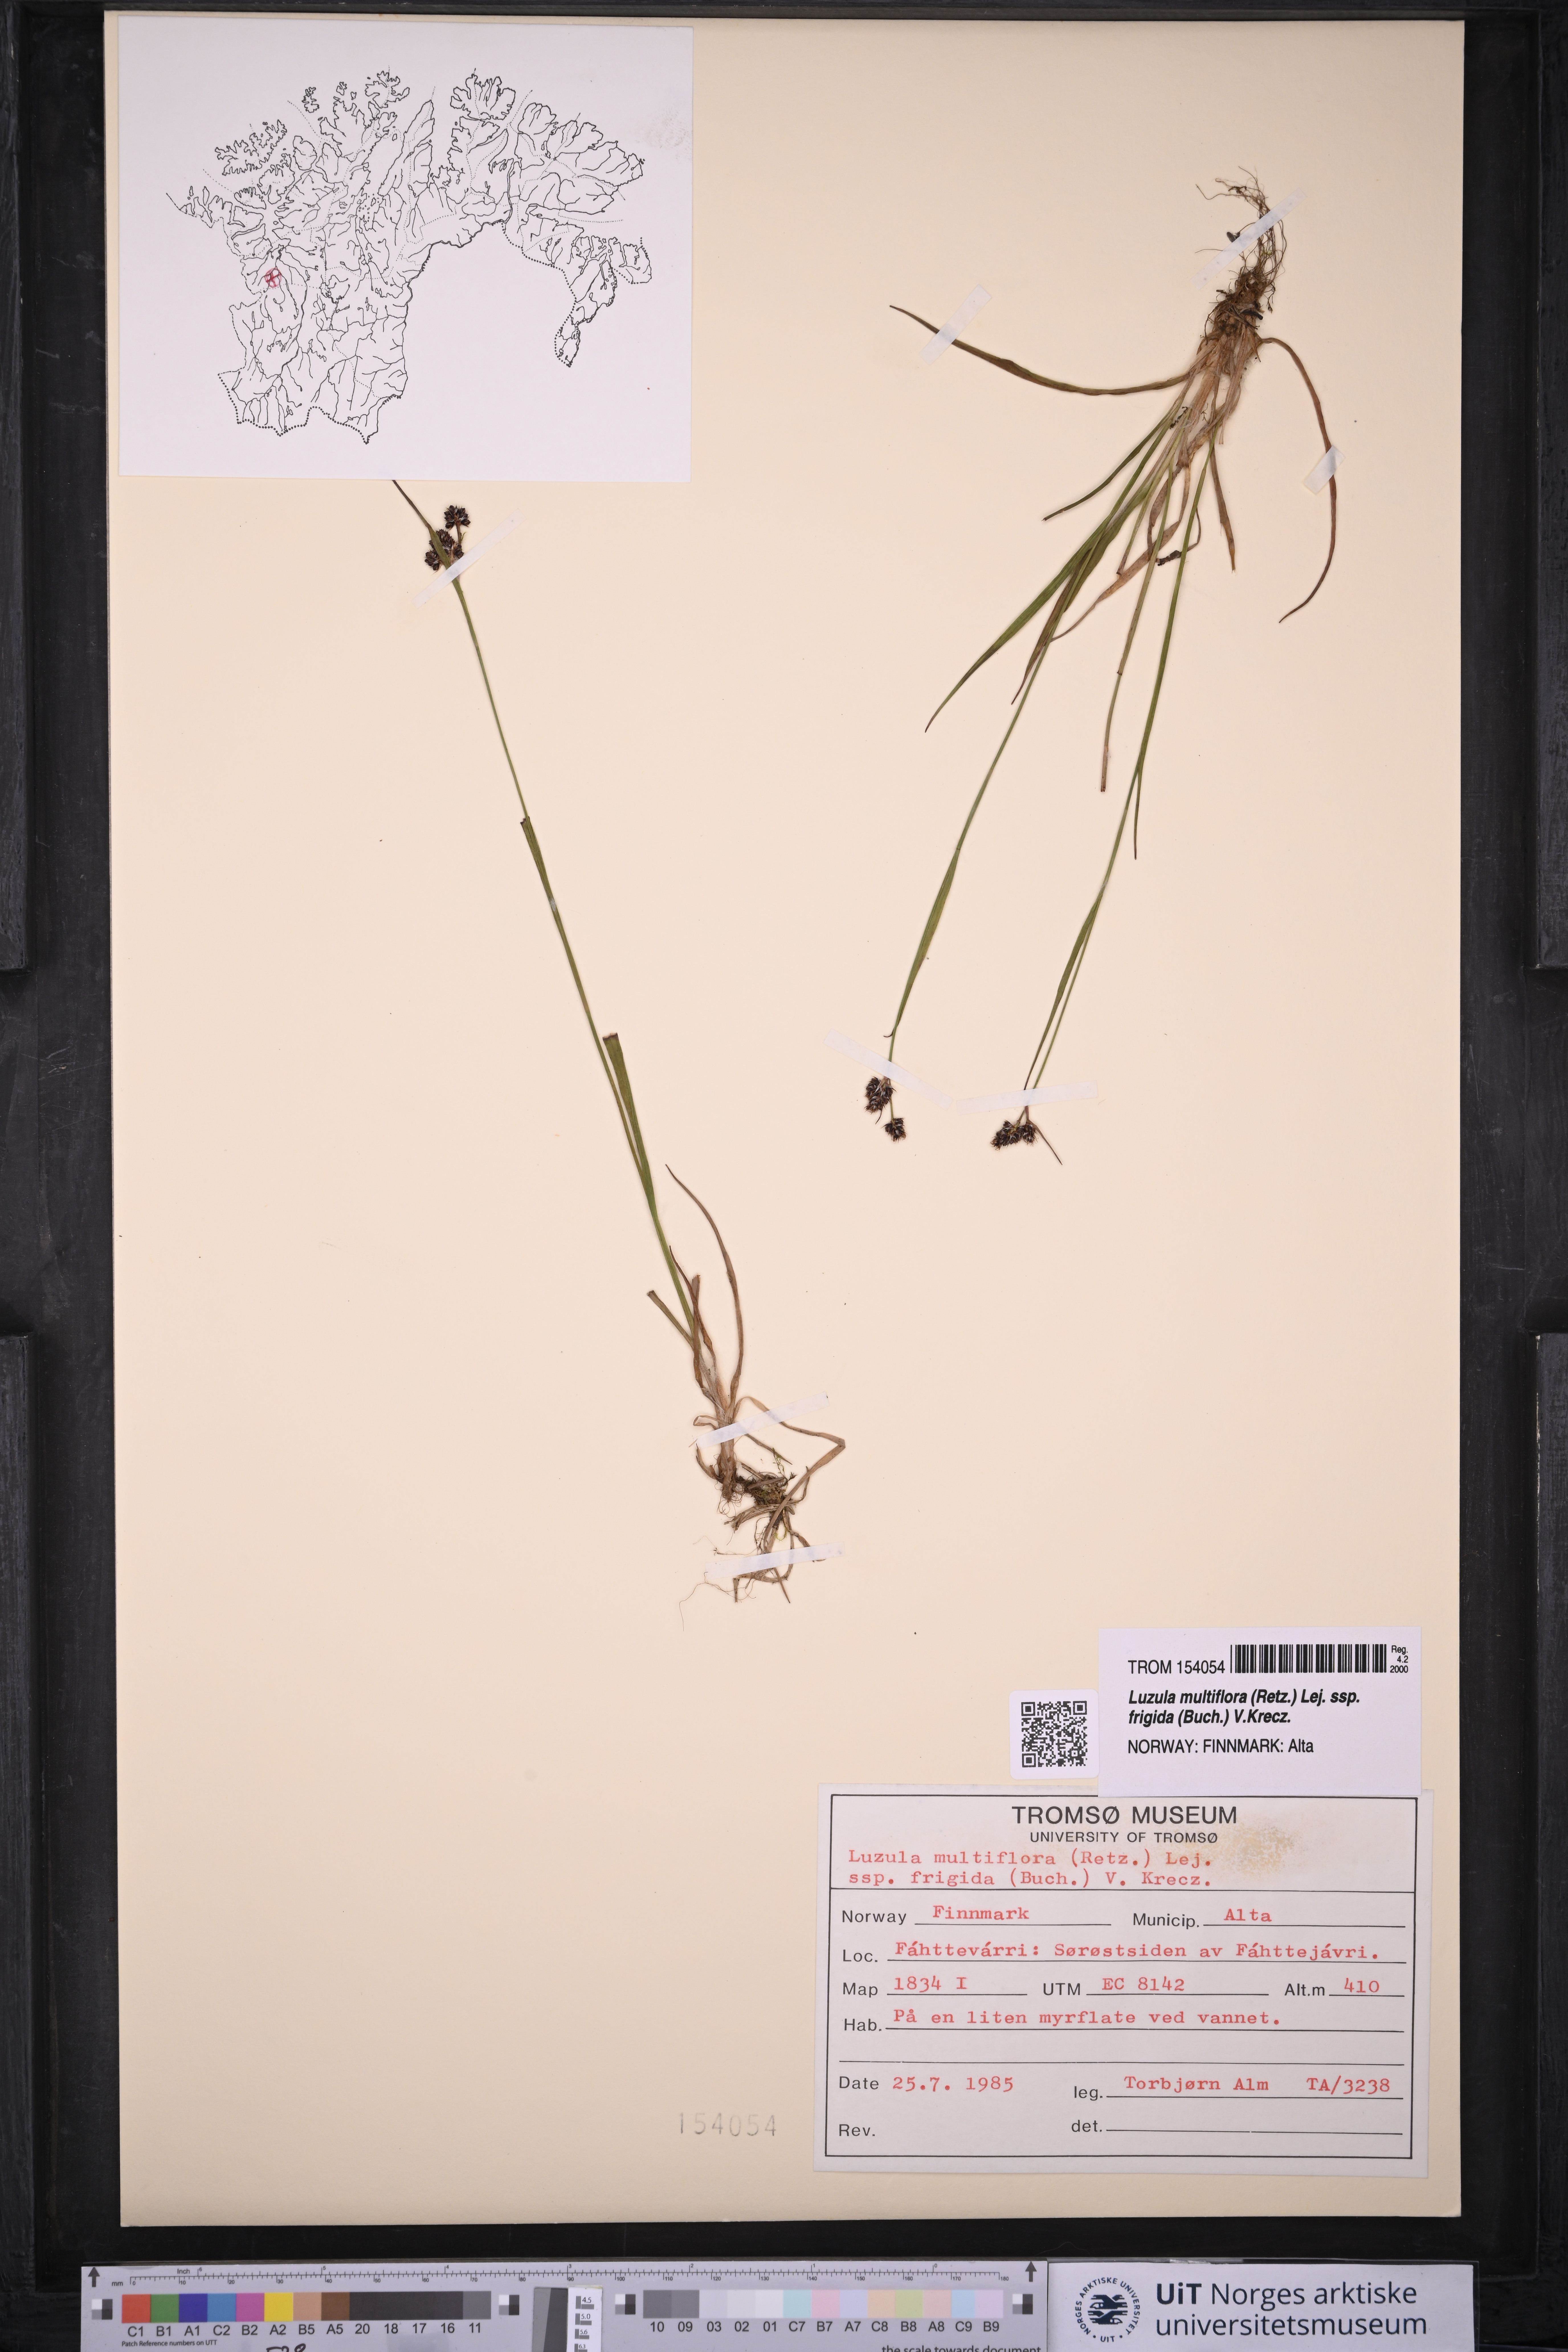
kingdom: Plantae
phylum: Tracheophyta
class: Liliopsida
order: Poales
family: Juncaceae
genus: Luzula
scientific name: Luzula multiflora
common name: Heath wood-rush
